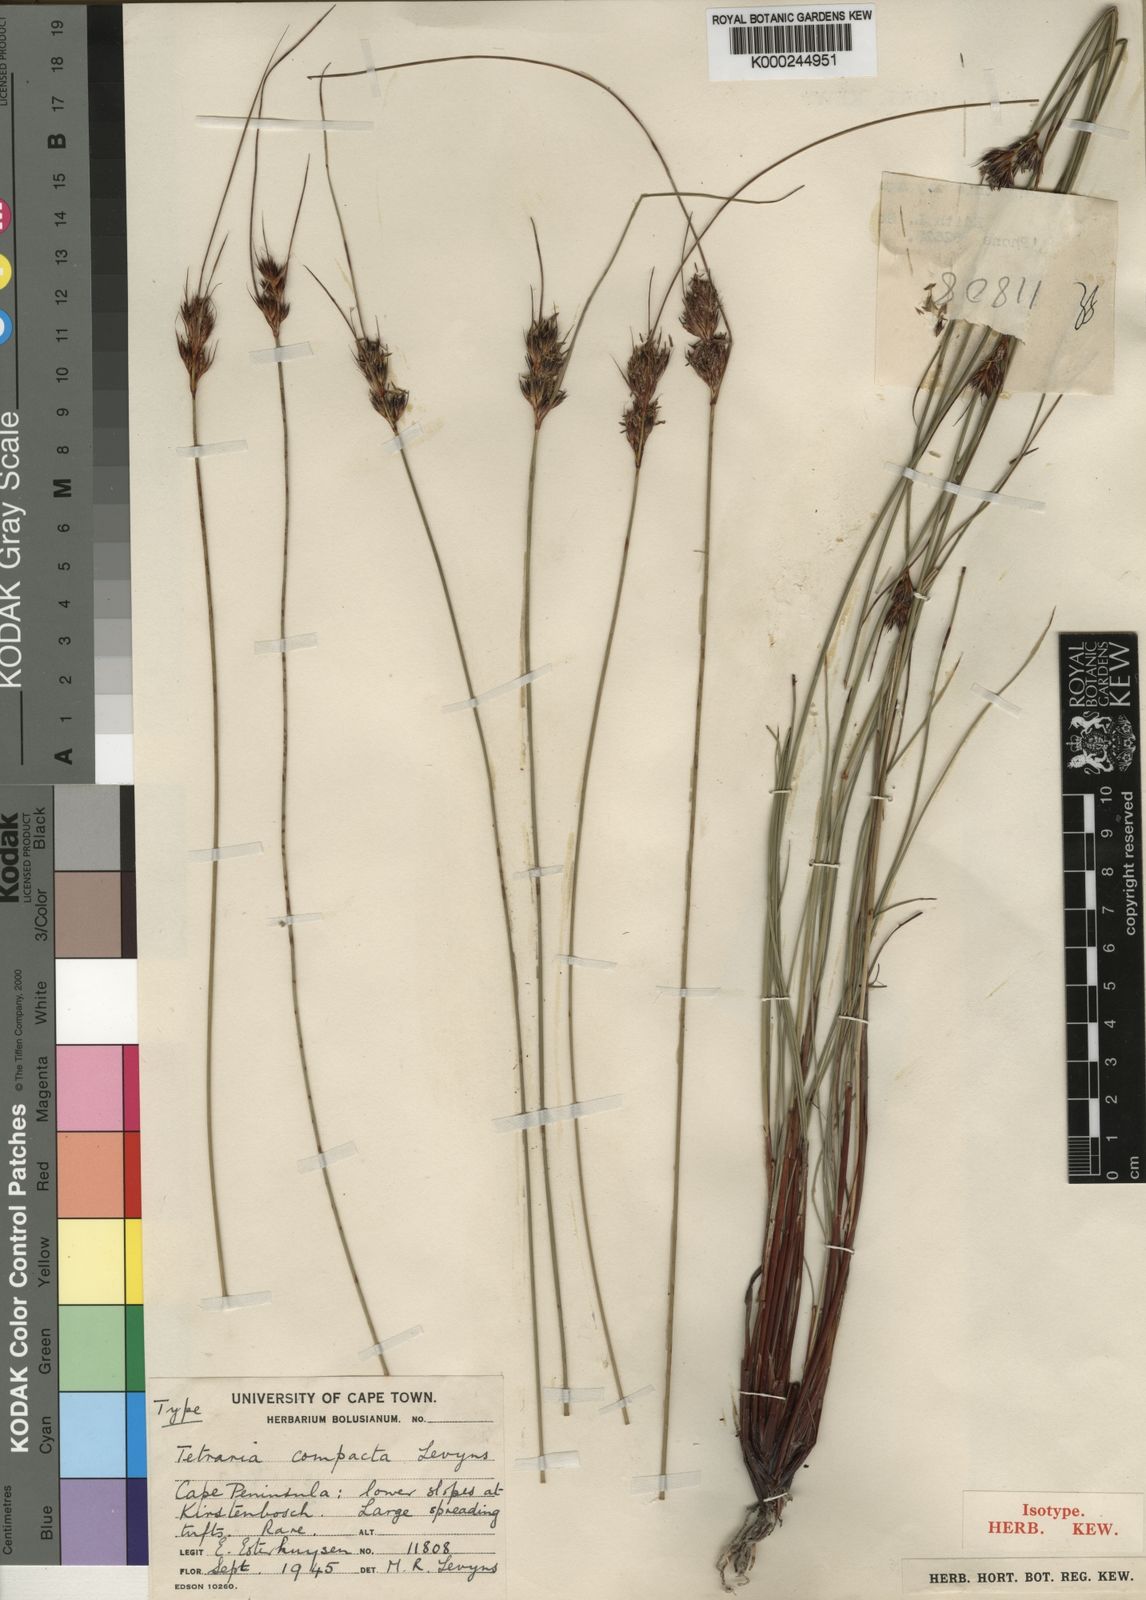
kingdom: Plantae
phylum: Tracheophyta
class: Liliopsida
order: Poales
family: Cyperaceae
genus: Schoenus
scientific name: Schoenus compactus
